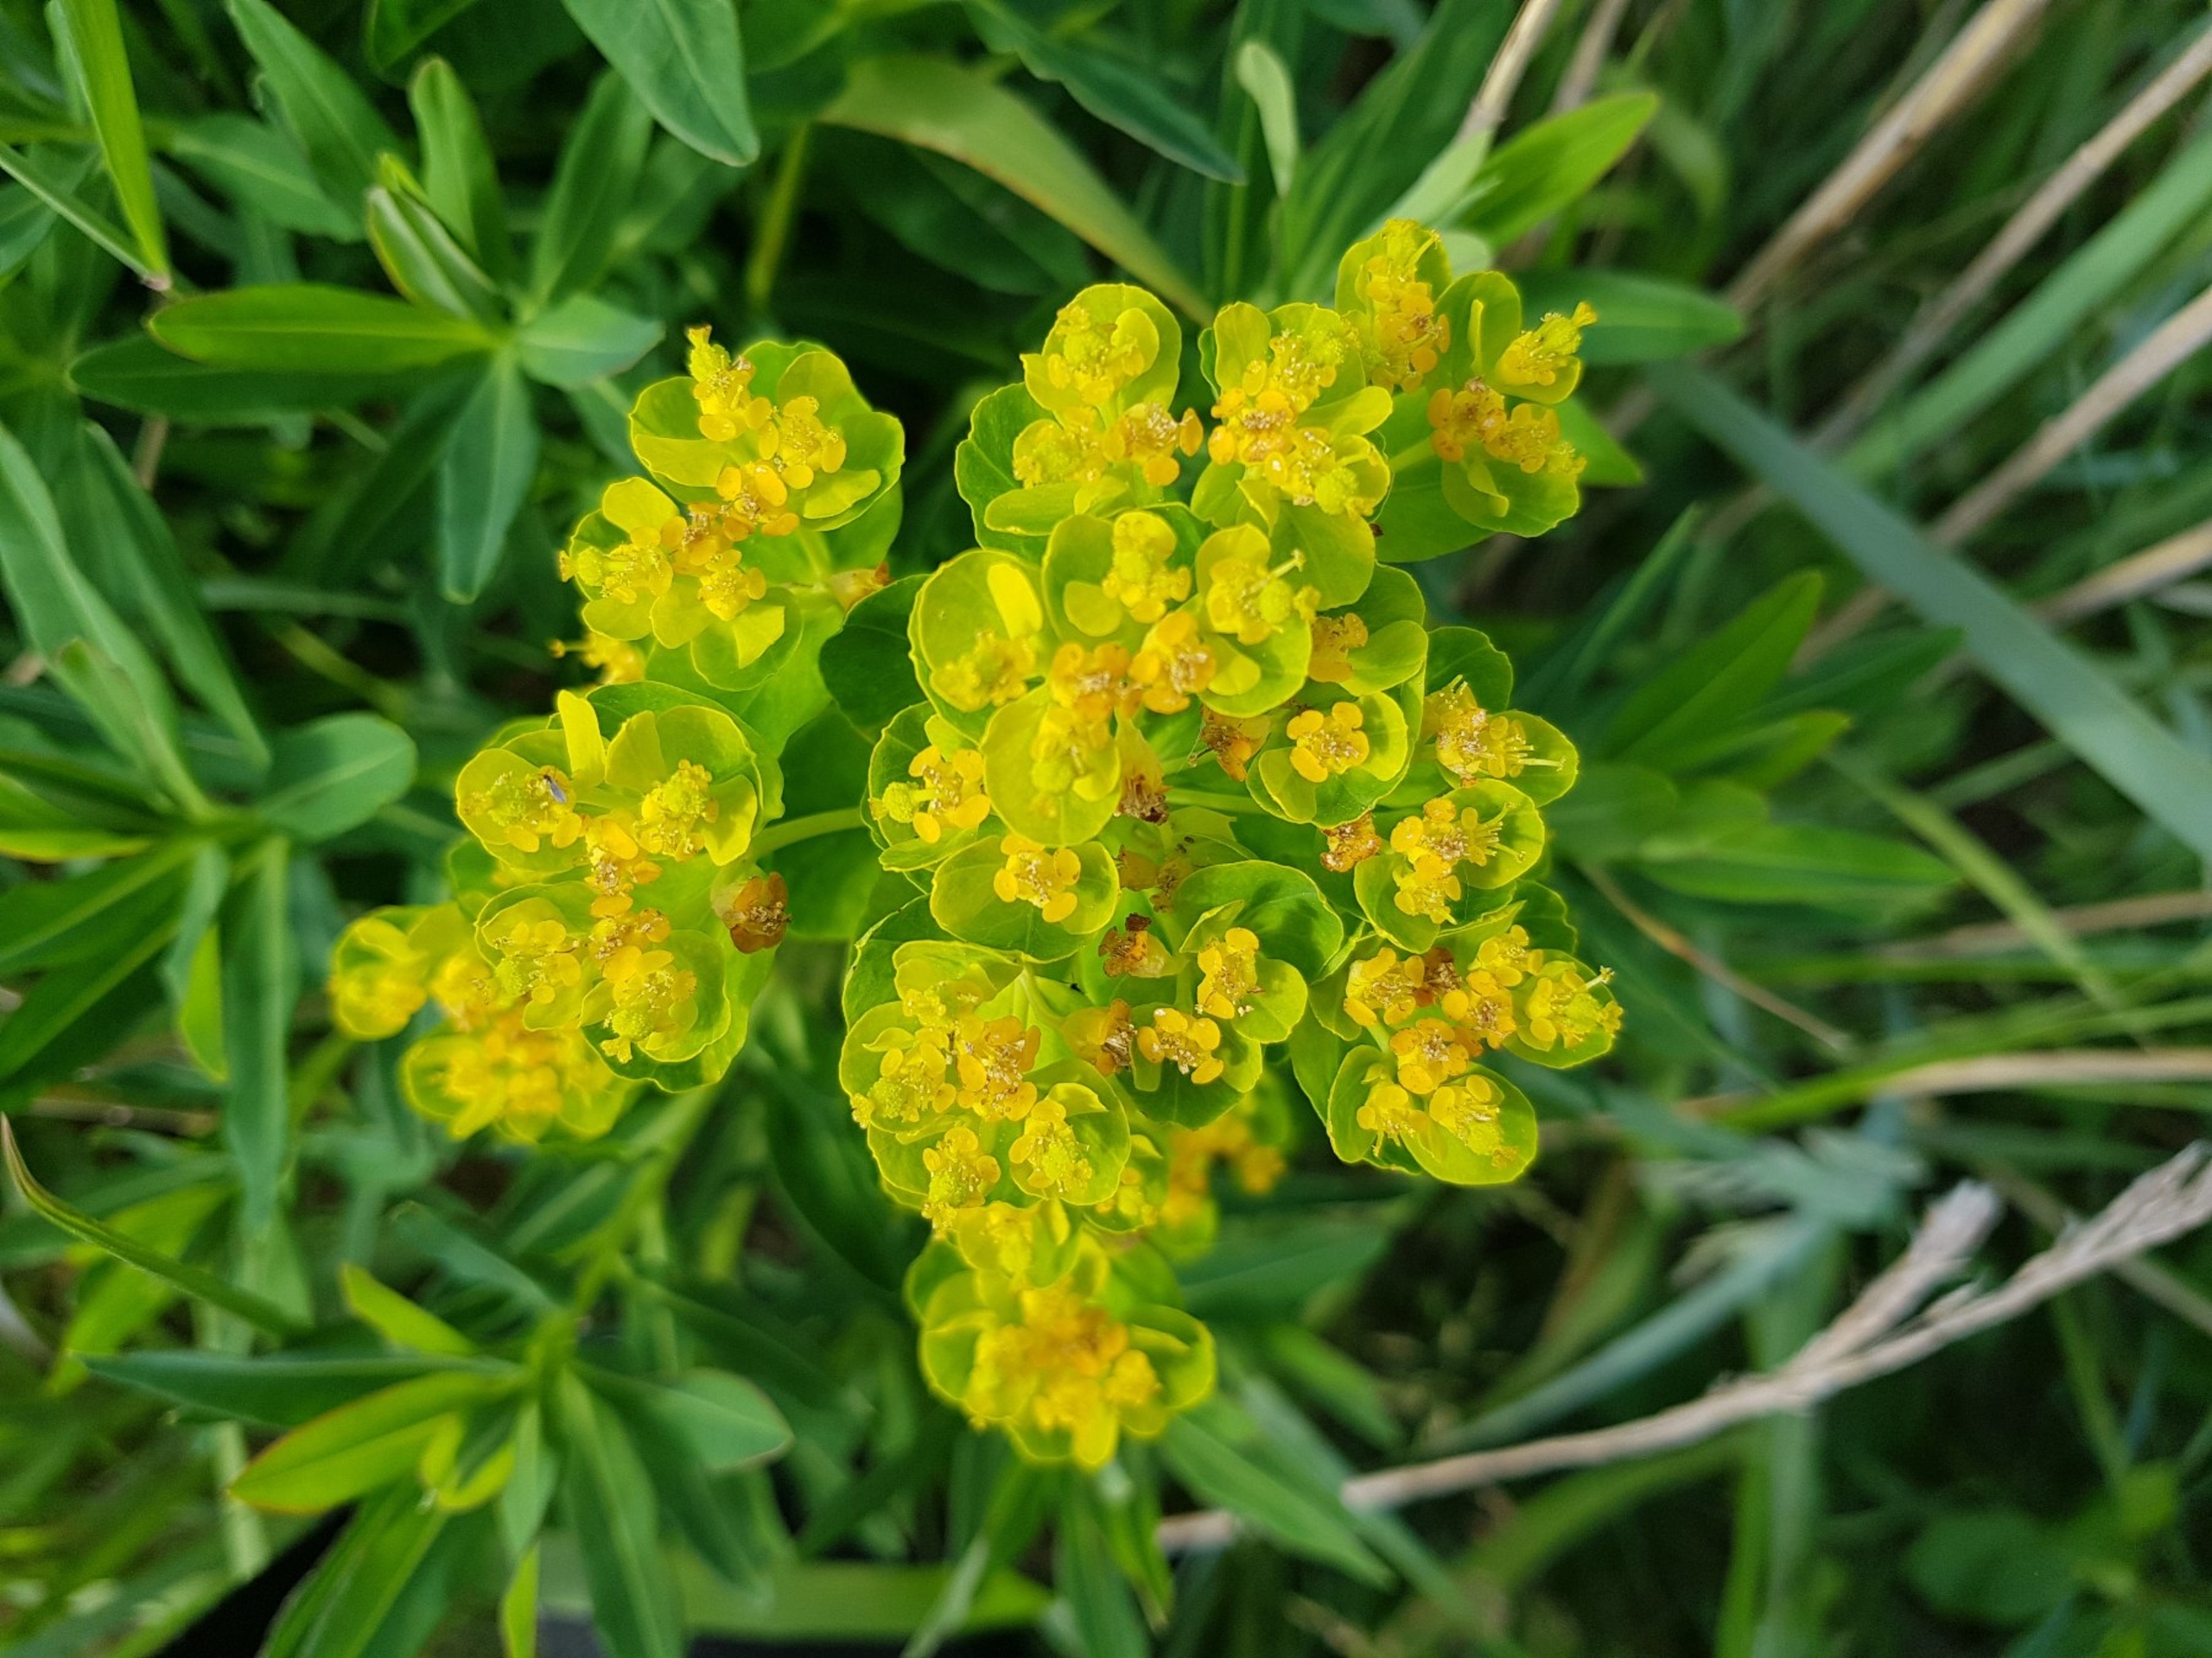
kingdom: Plantae
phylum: Tracheophyta
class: Magnoliopsida
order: Malpighiales
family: Euphorbiaceae
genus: Euphorbia
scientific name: Euphorbia palustris
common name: Strand-vortemælk
